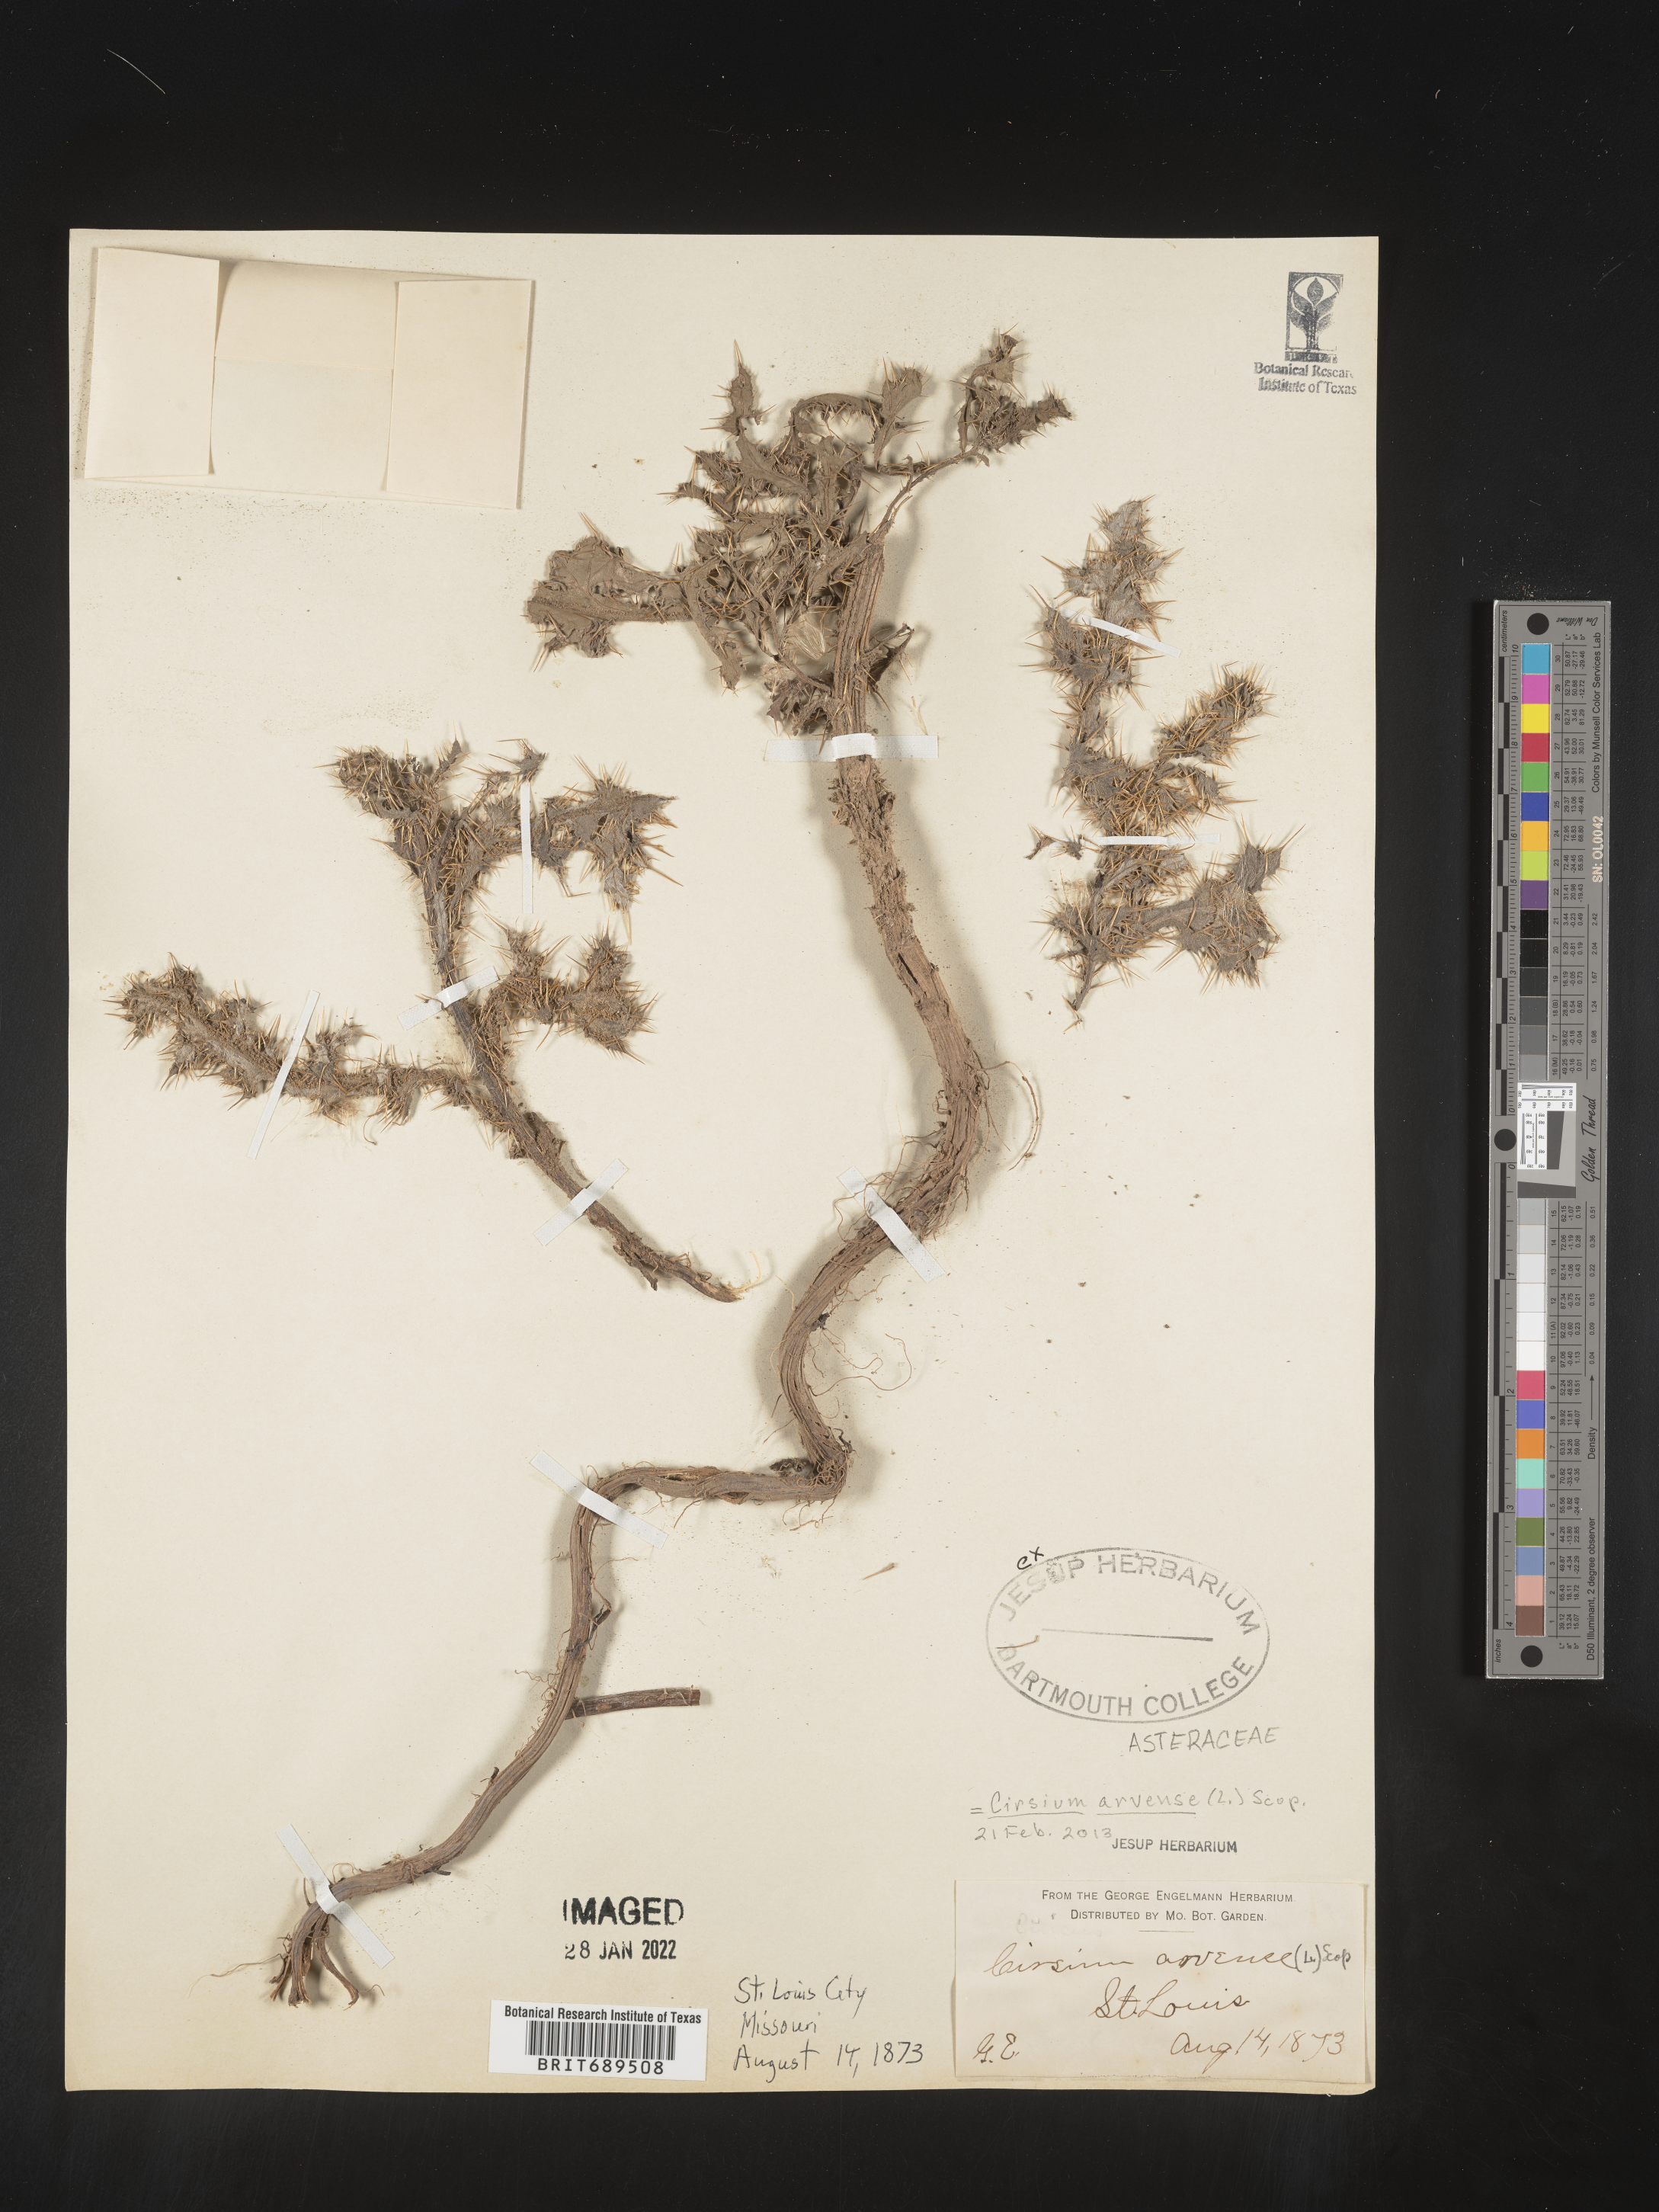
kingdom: Plantae
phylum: Tracheophyta
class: Magnoliopsida
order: Asterales
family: Asteraceae
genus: Cirsium
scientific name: Cirsium arvense
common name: Creeping thistle
